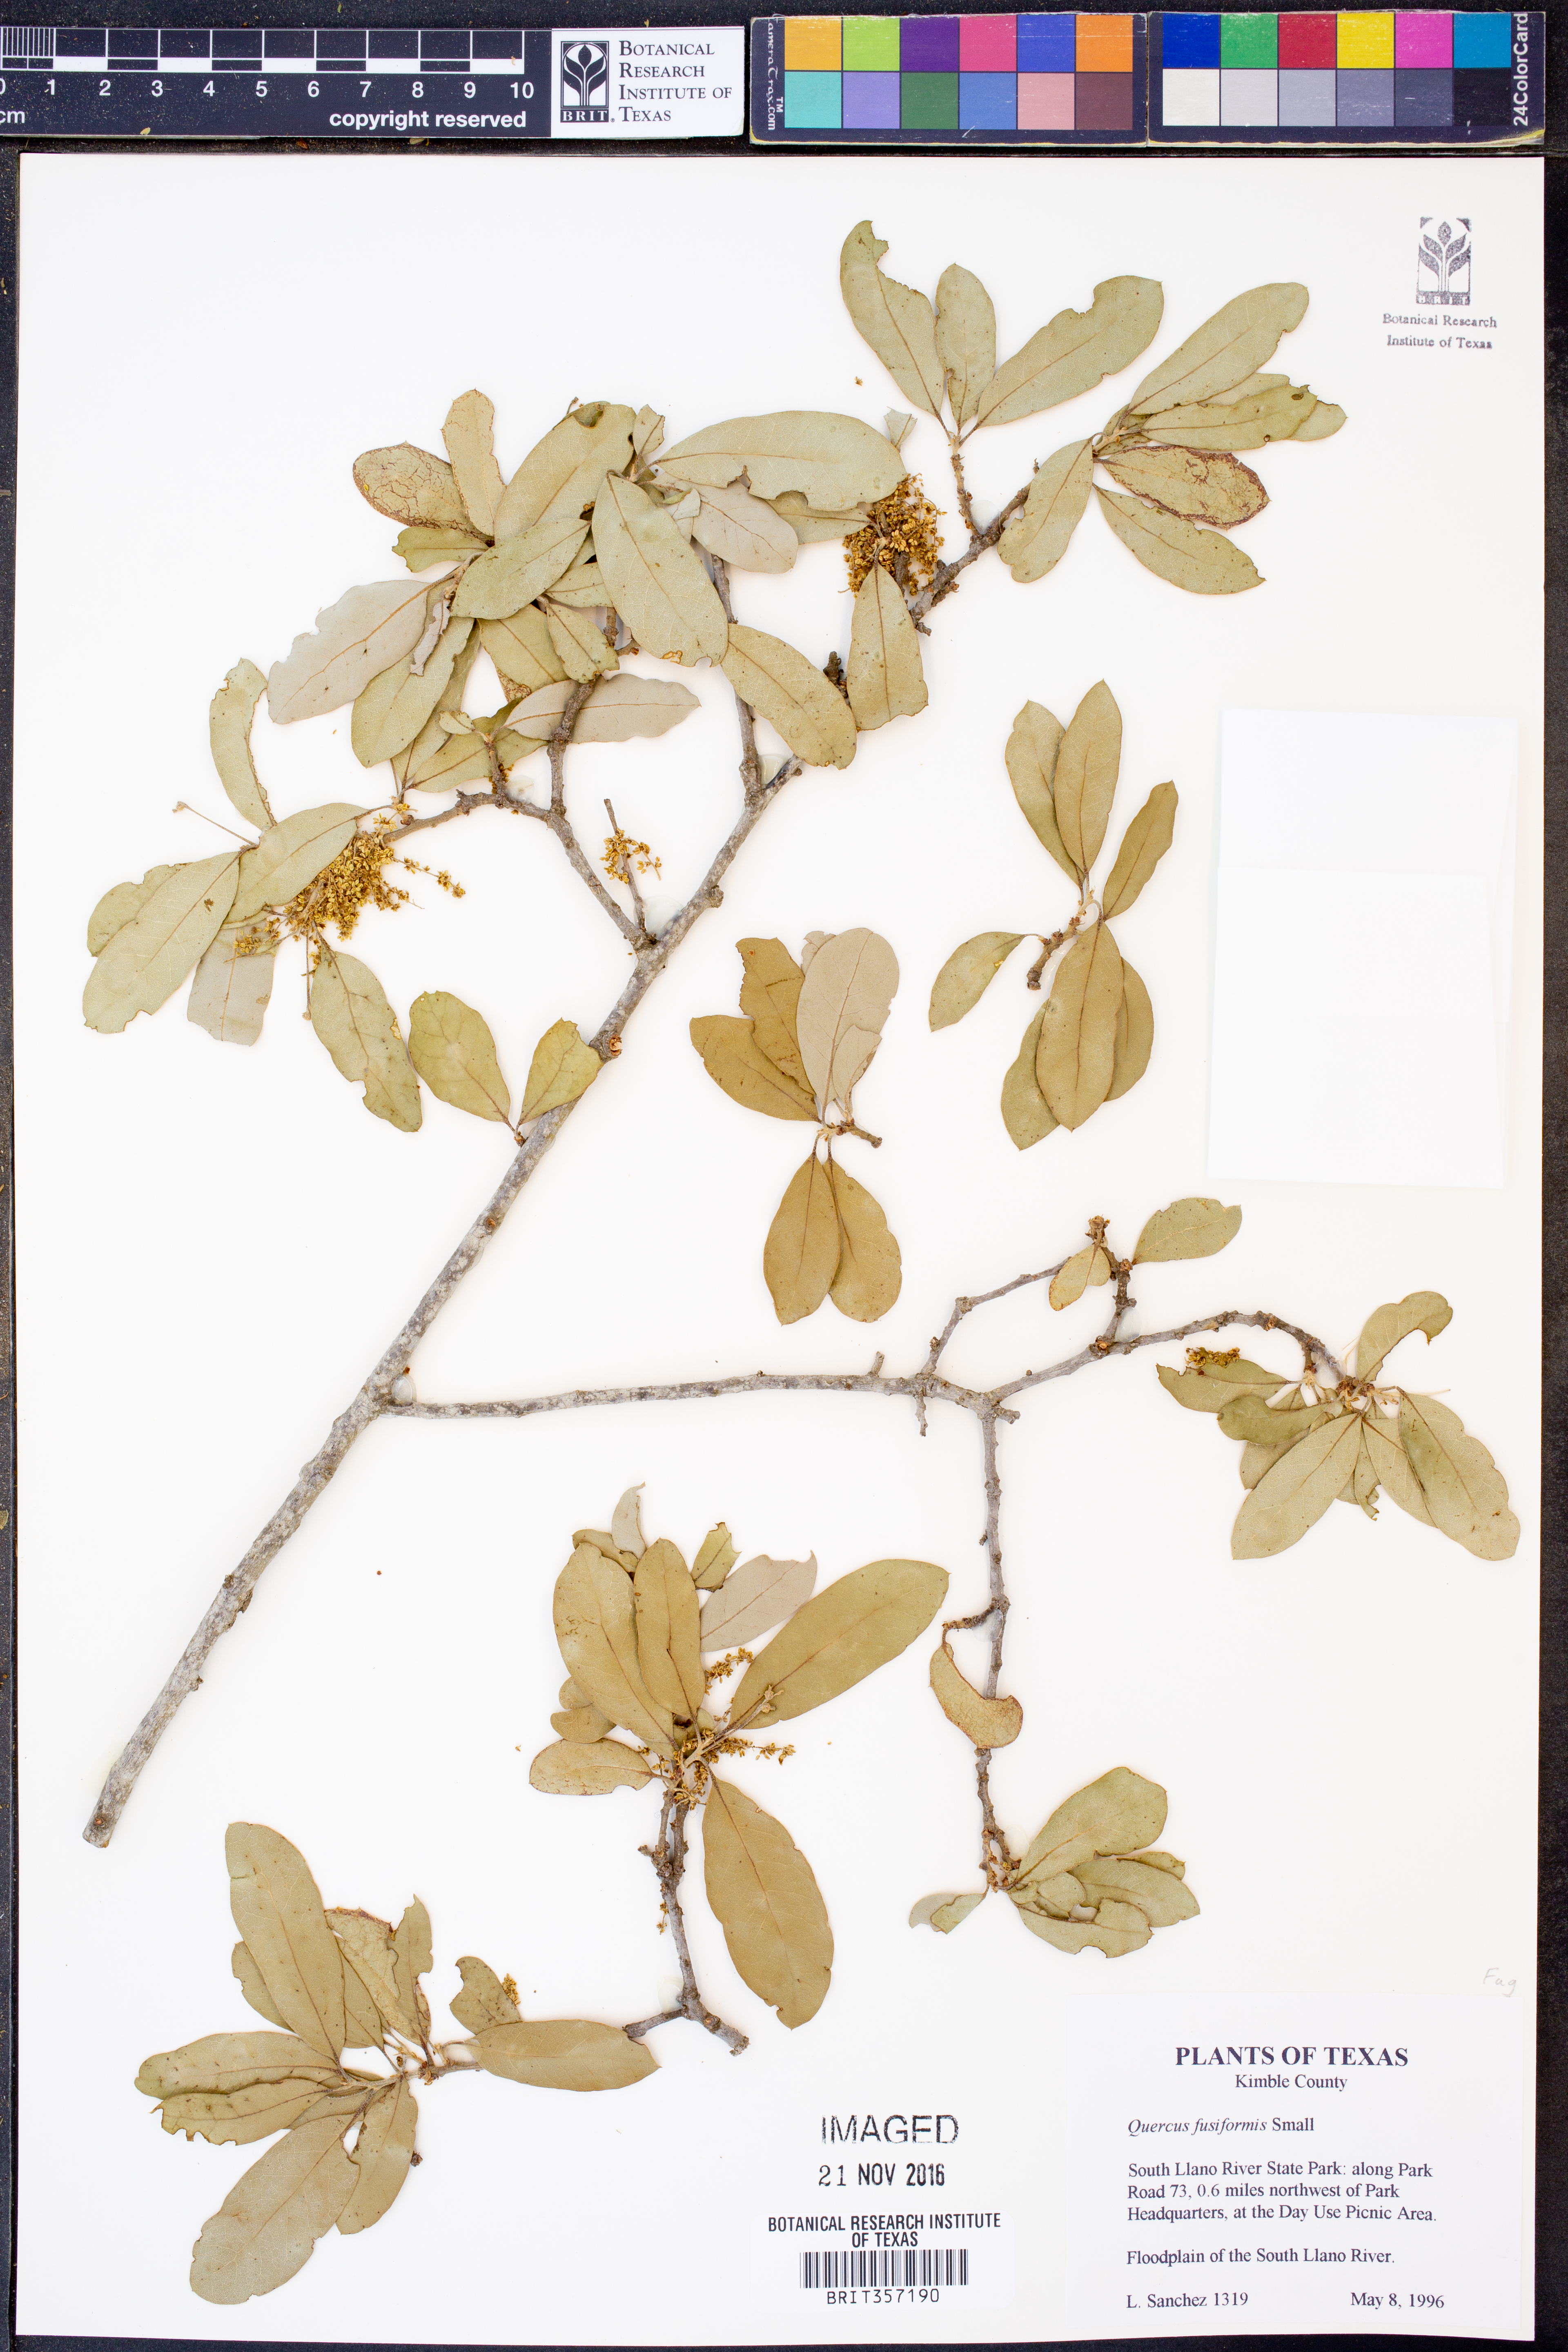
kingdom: Plantae
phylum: Tracheophyta
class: Magnoliopsida
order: Fagales
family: Fagaceae
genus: Quercus
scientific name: Quercus fusiformis
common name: Texas live oak
